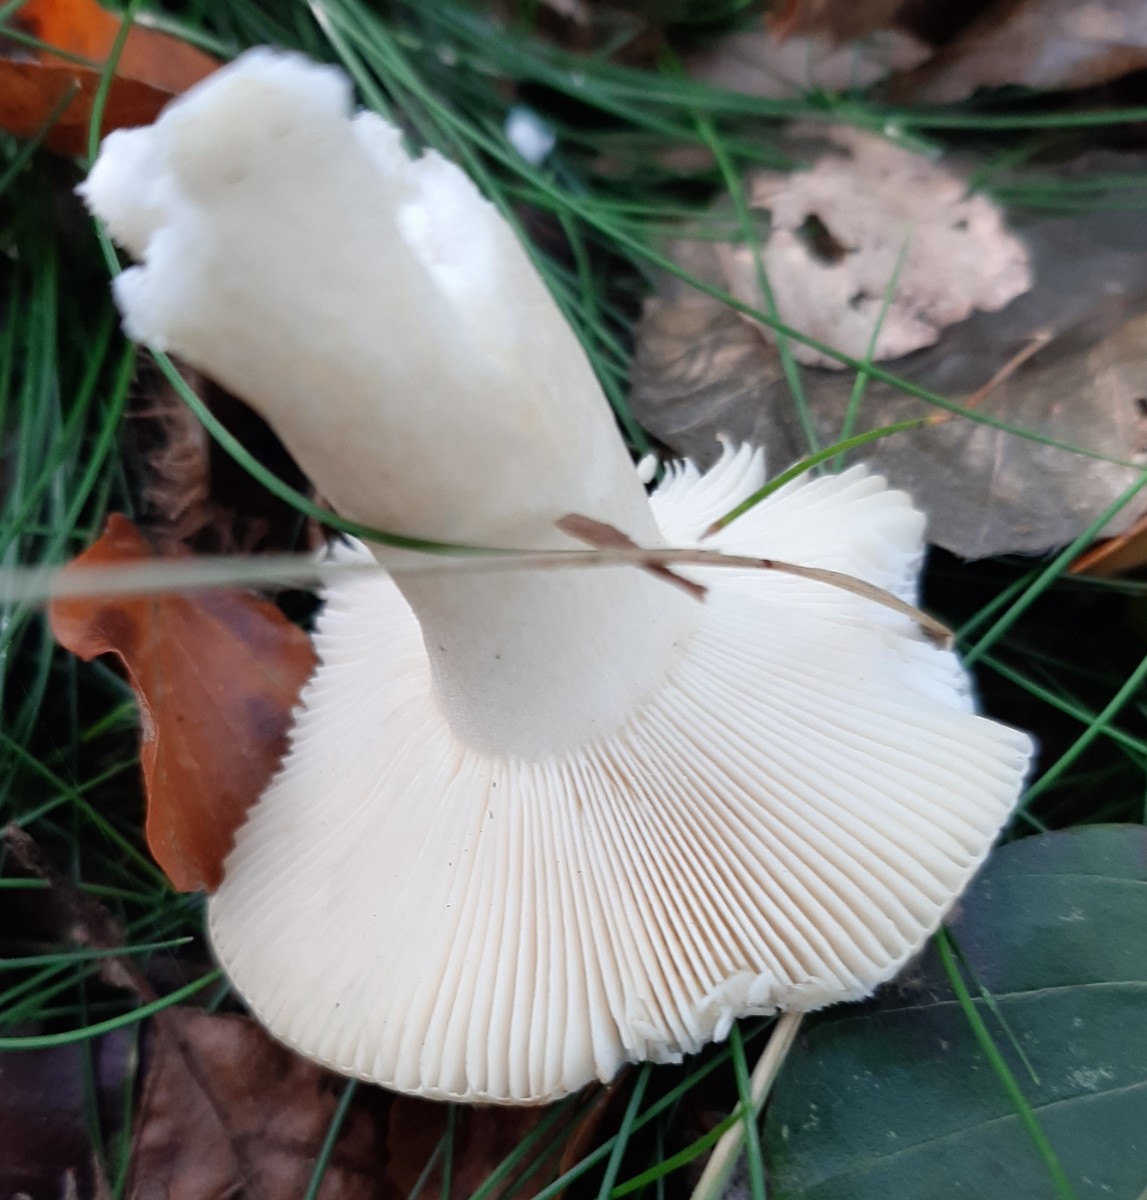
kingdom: Fungi
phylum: Basidiomycota
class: Agaricomycetes
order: Russulales
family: Russulaceae
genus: Russula
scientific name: Russula fellea
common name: galde-skørhat
